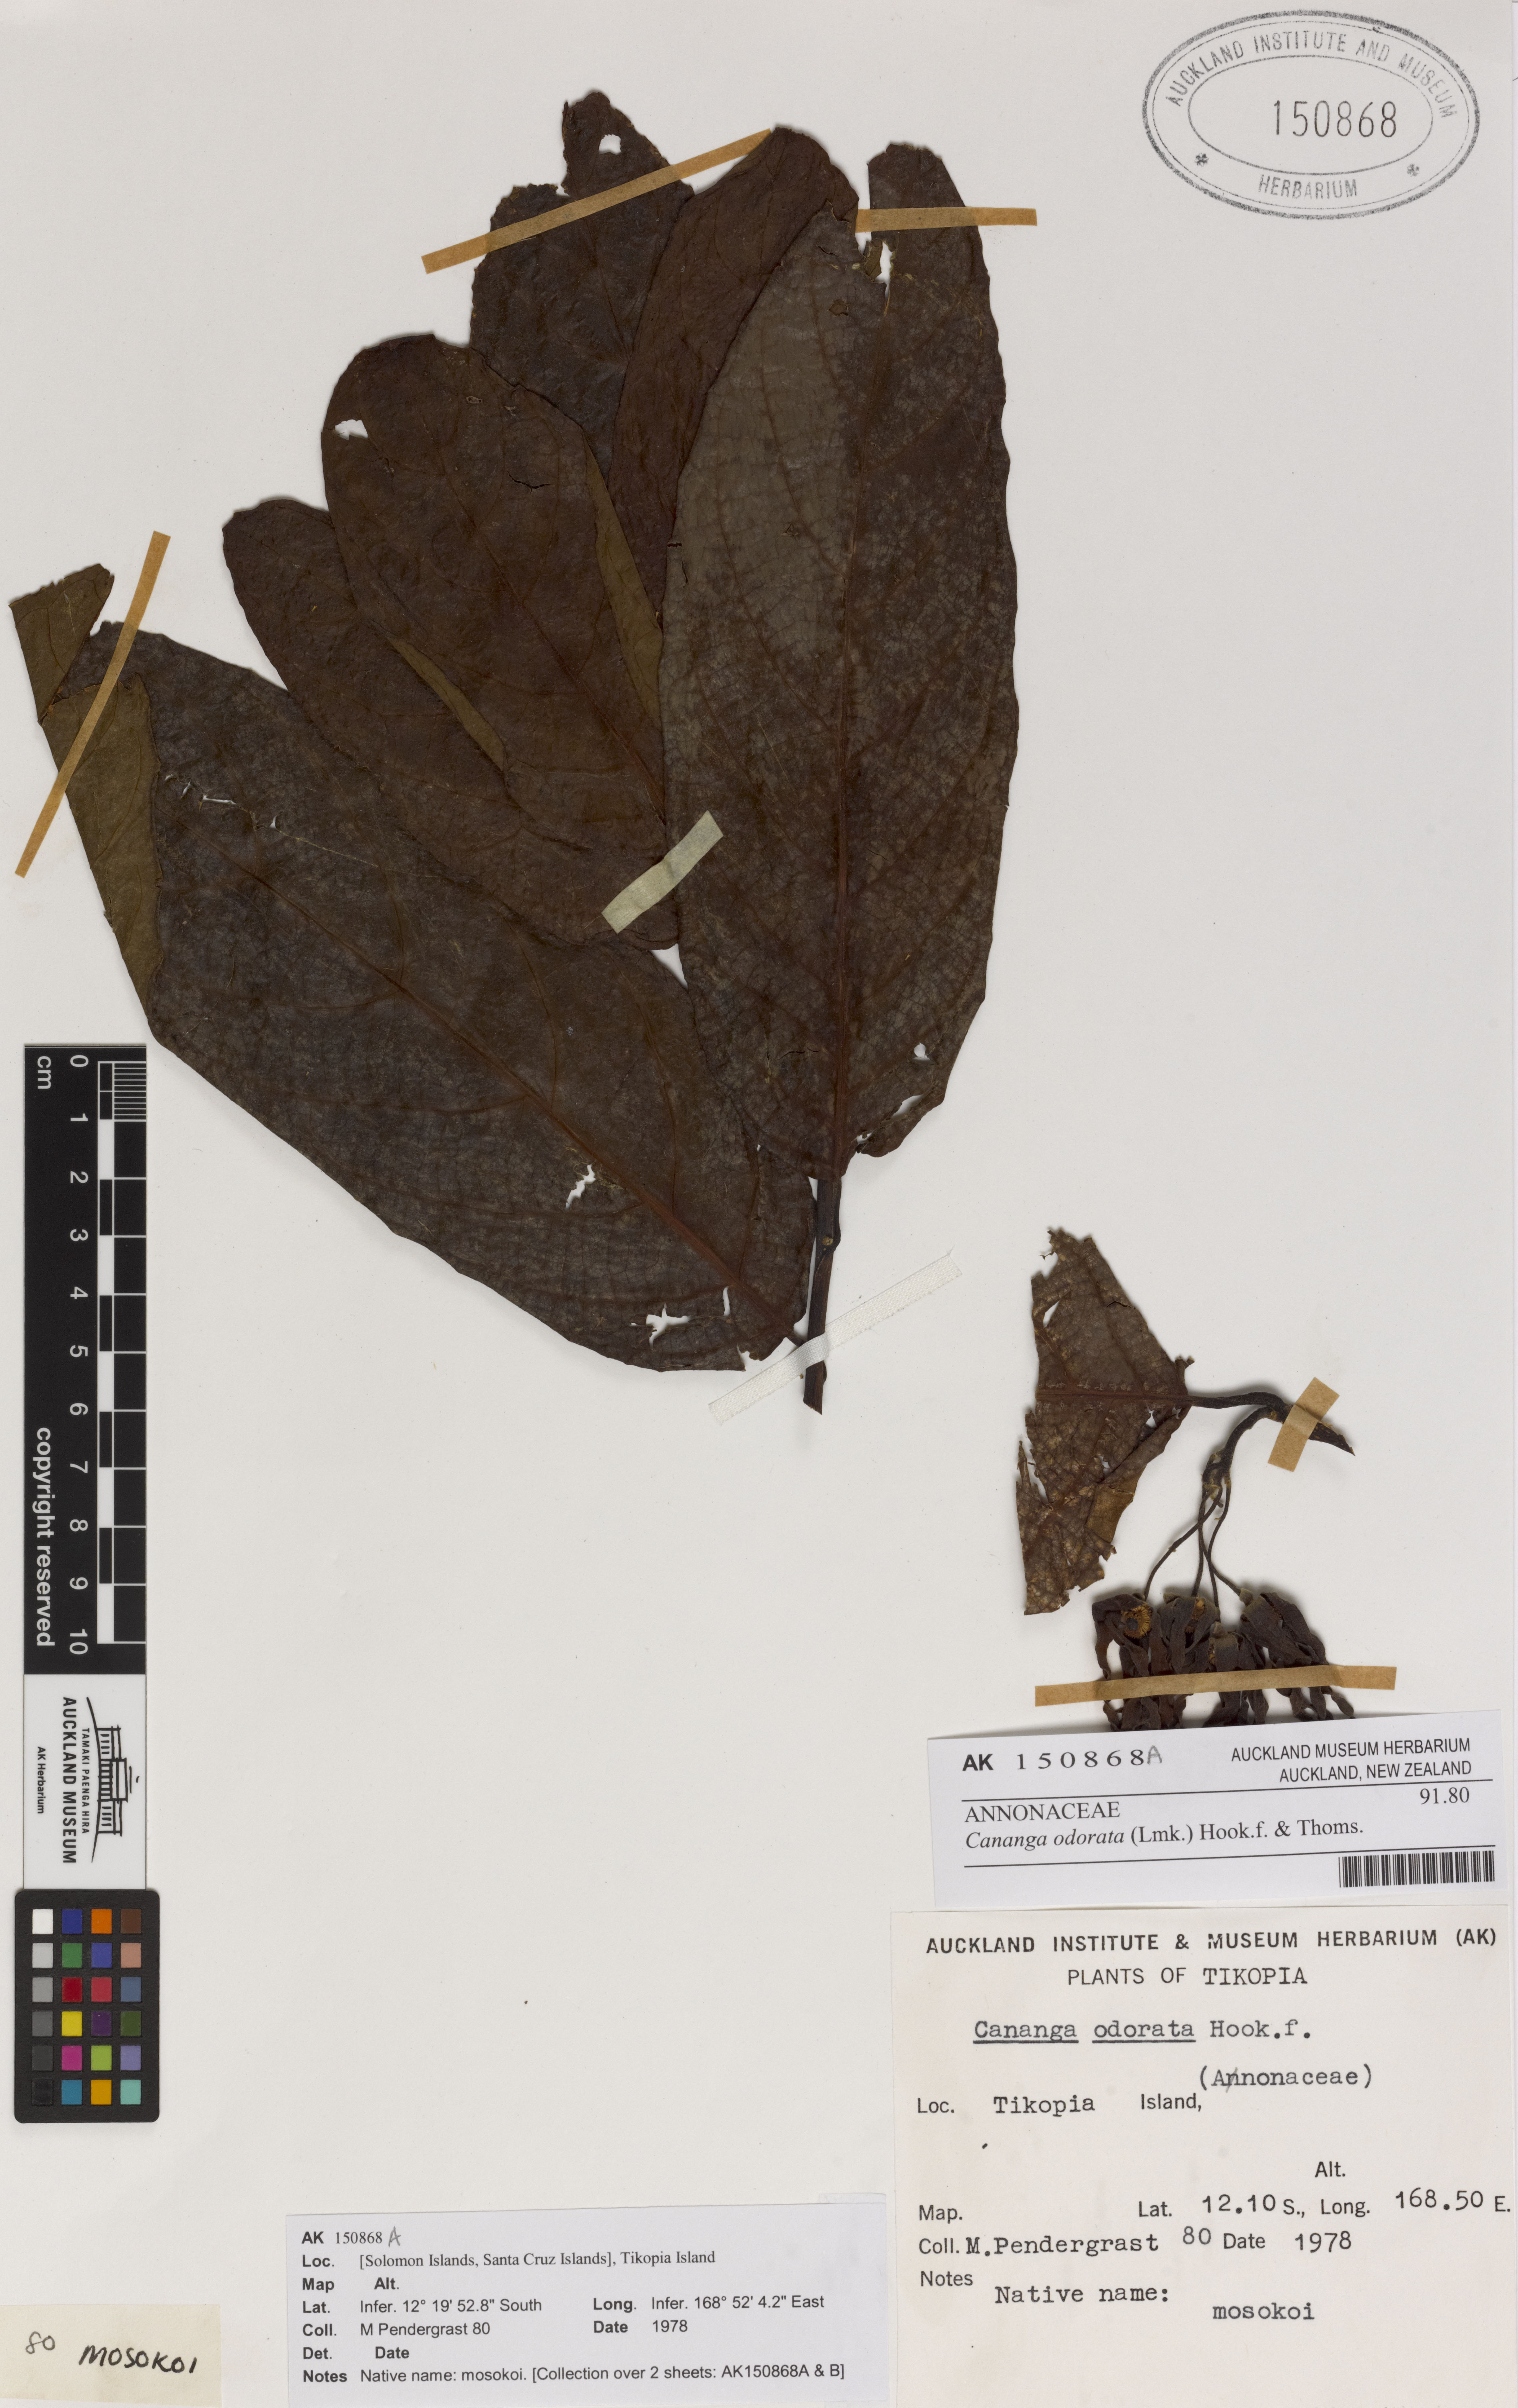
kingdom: Plantae
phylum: Tracheophyta
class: Magnoliopsida
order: Magnoliales
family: Annonaceae
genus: Cananga
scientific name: Cananga odorata
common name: Cananga tree
